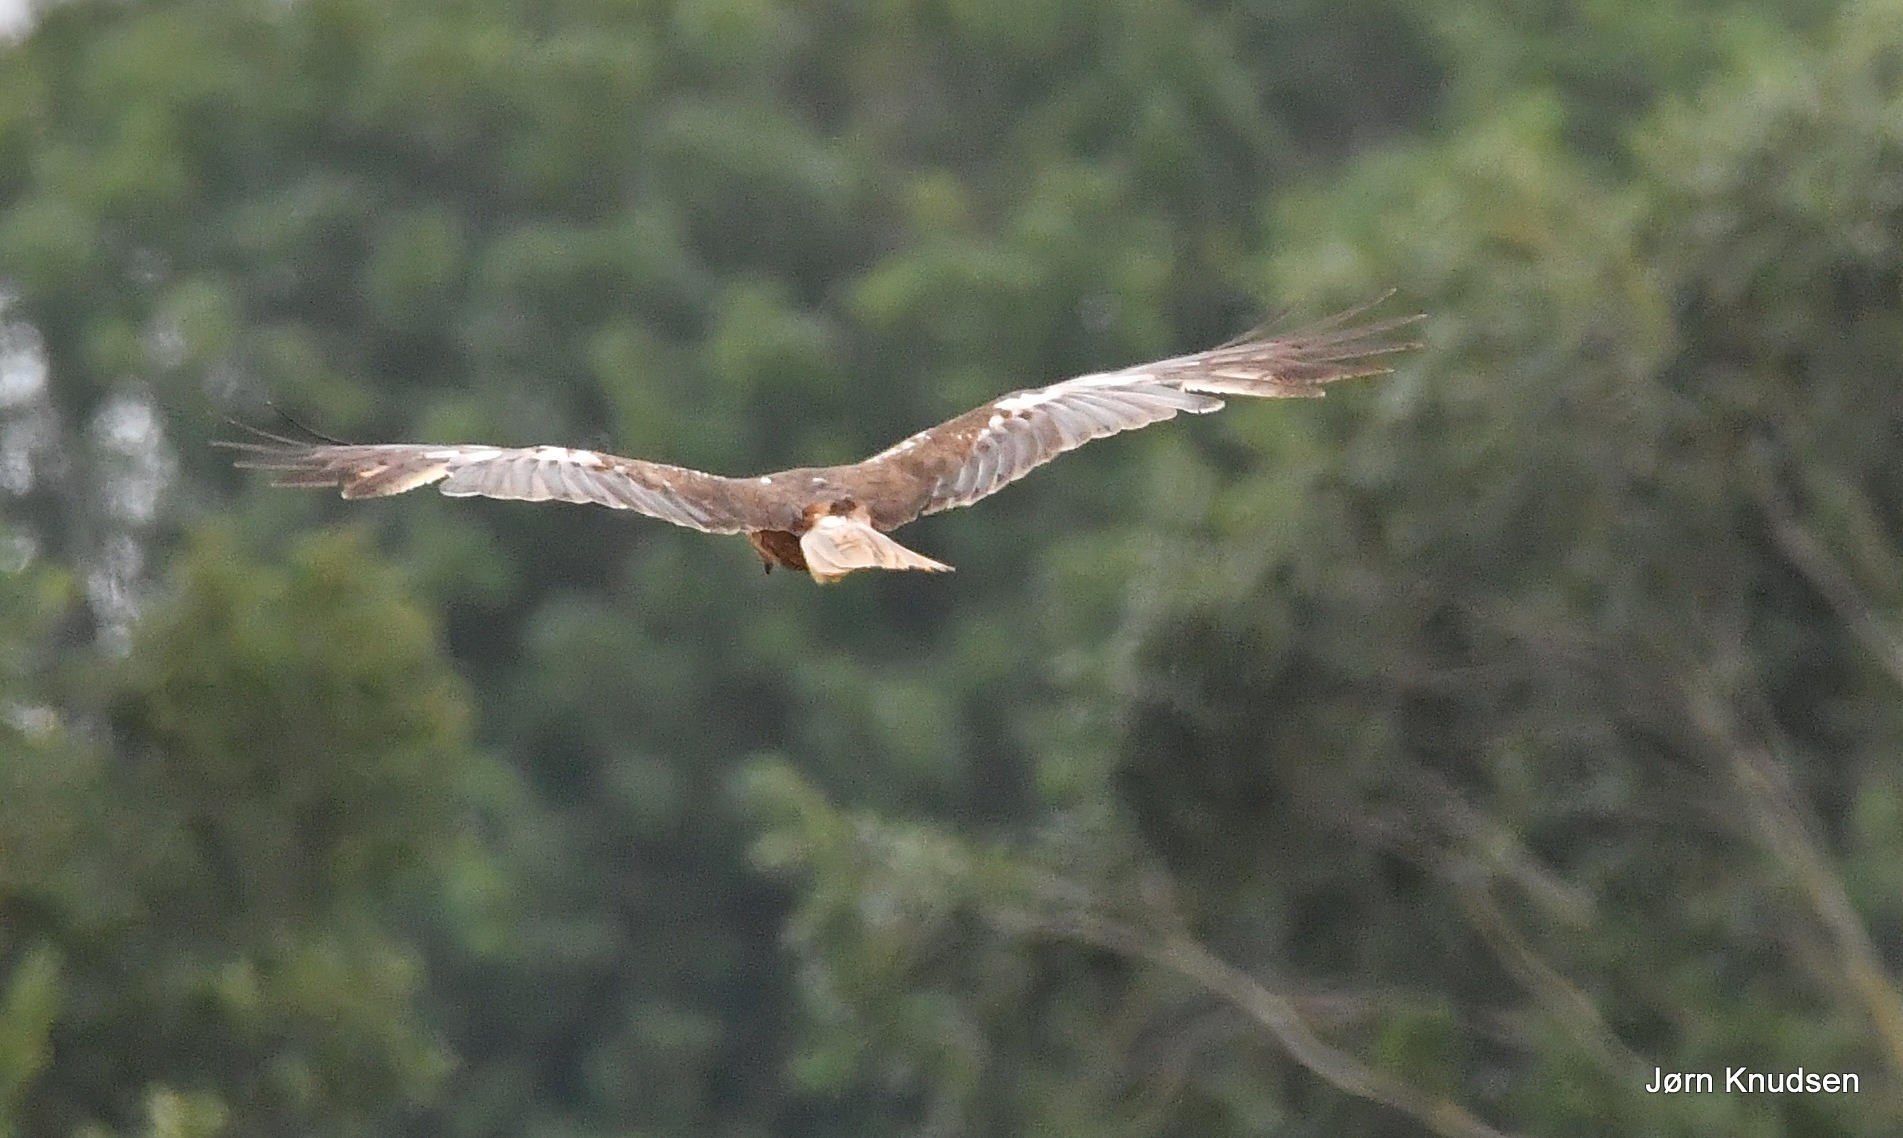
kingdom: Animalia
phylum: Chordata
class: Aves
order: Accipitriformes
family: Accipitridae
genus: Circus
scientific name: Circus aeruginosus
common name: Rørhøg
